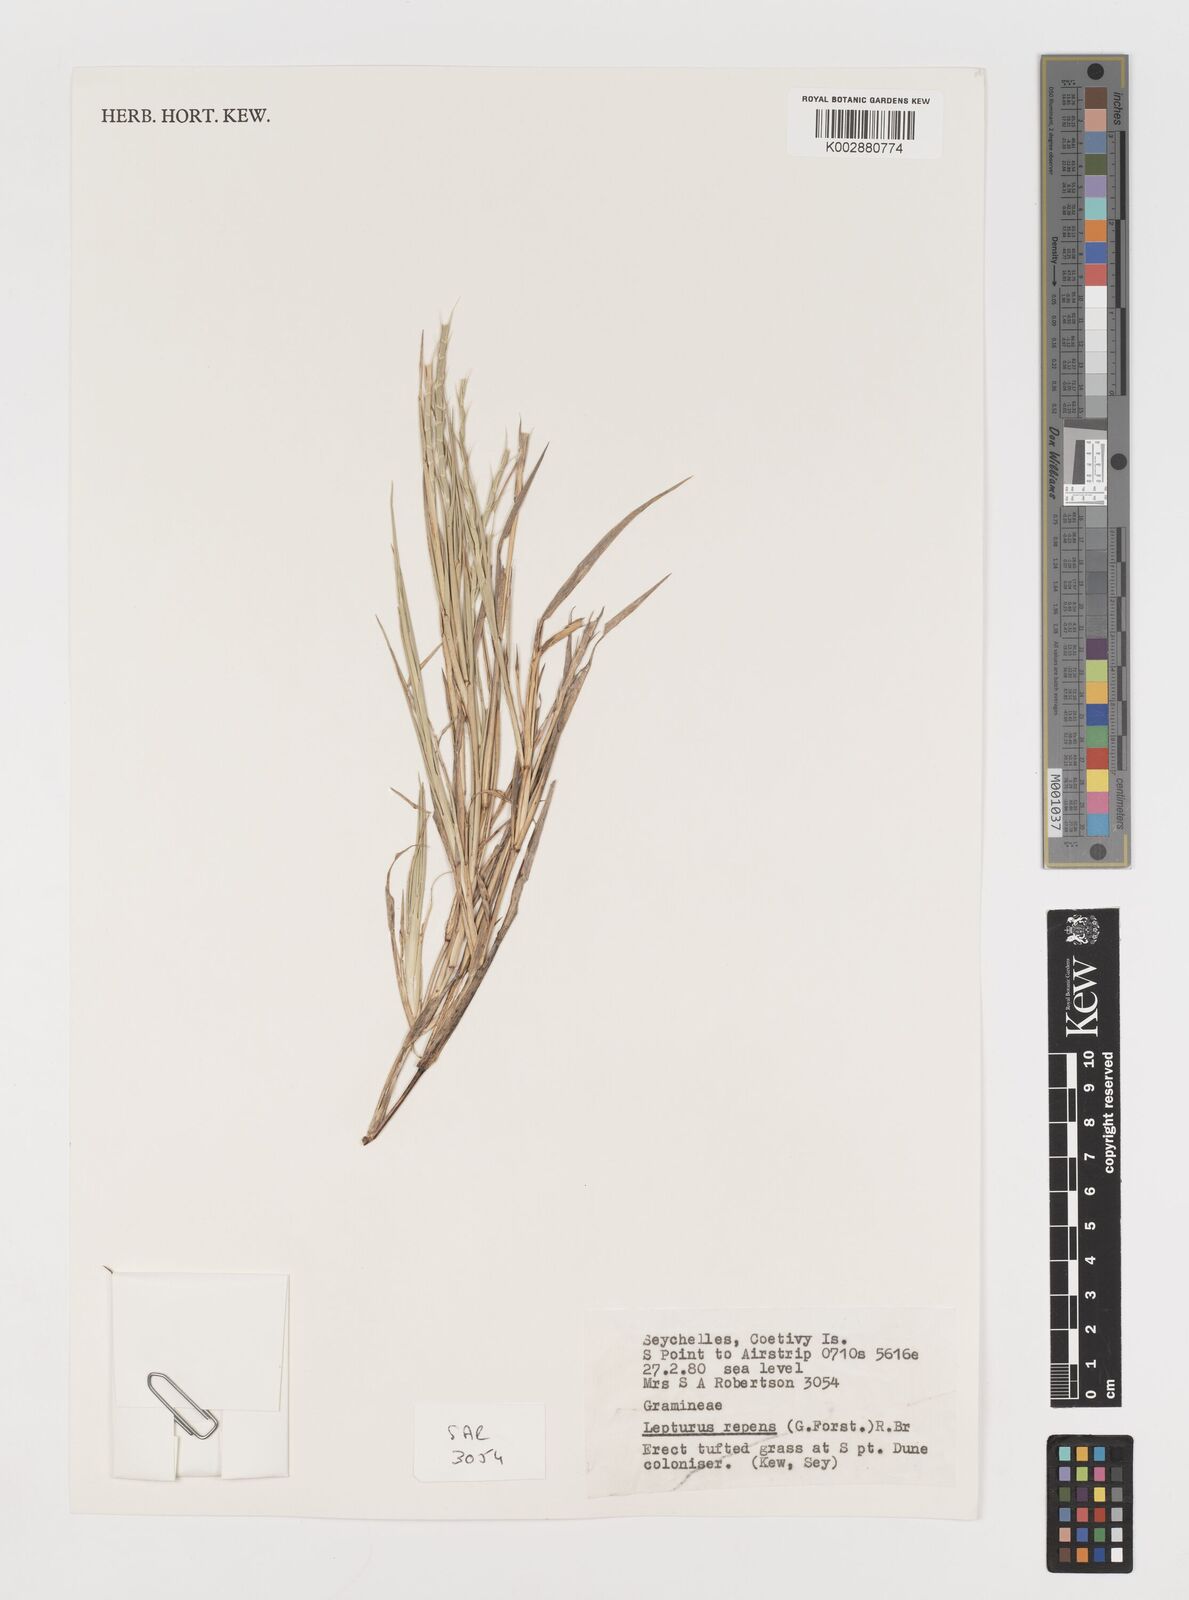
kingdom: Plantae
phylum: Tracheophyta
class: Liliopsida
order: Poales
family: Poaceae
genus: Lepturus
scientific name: Lepturus repens
